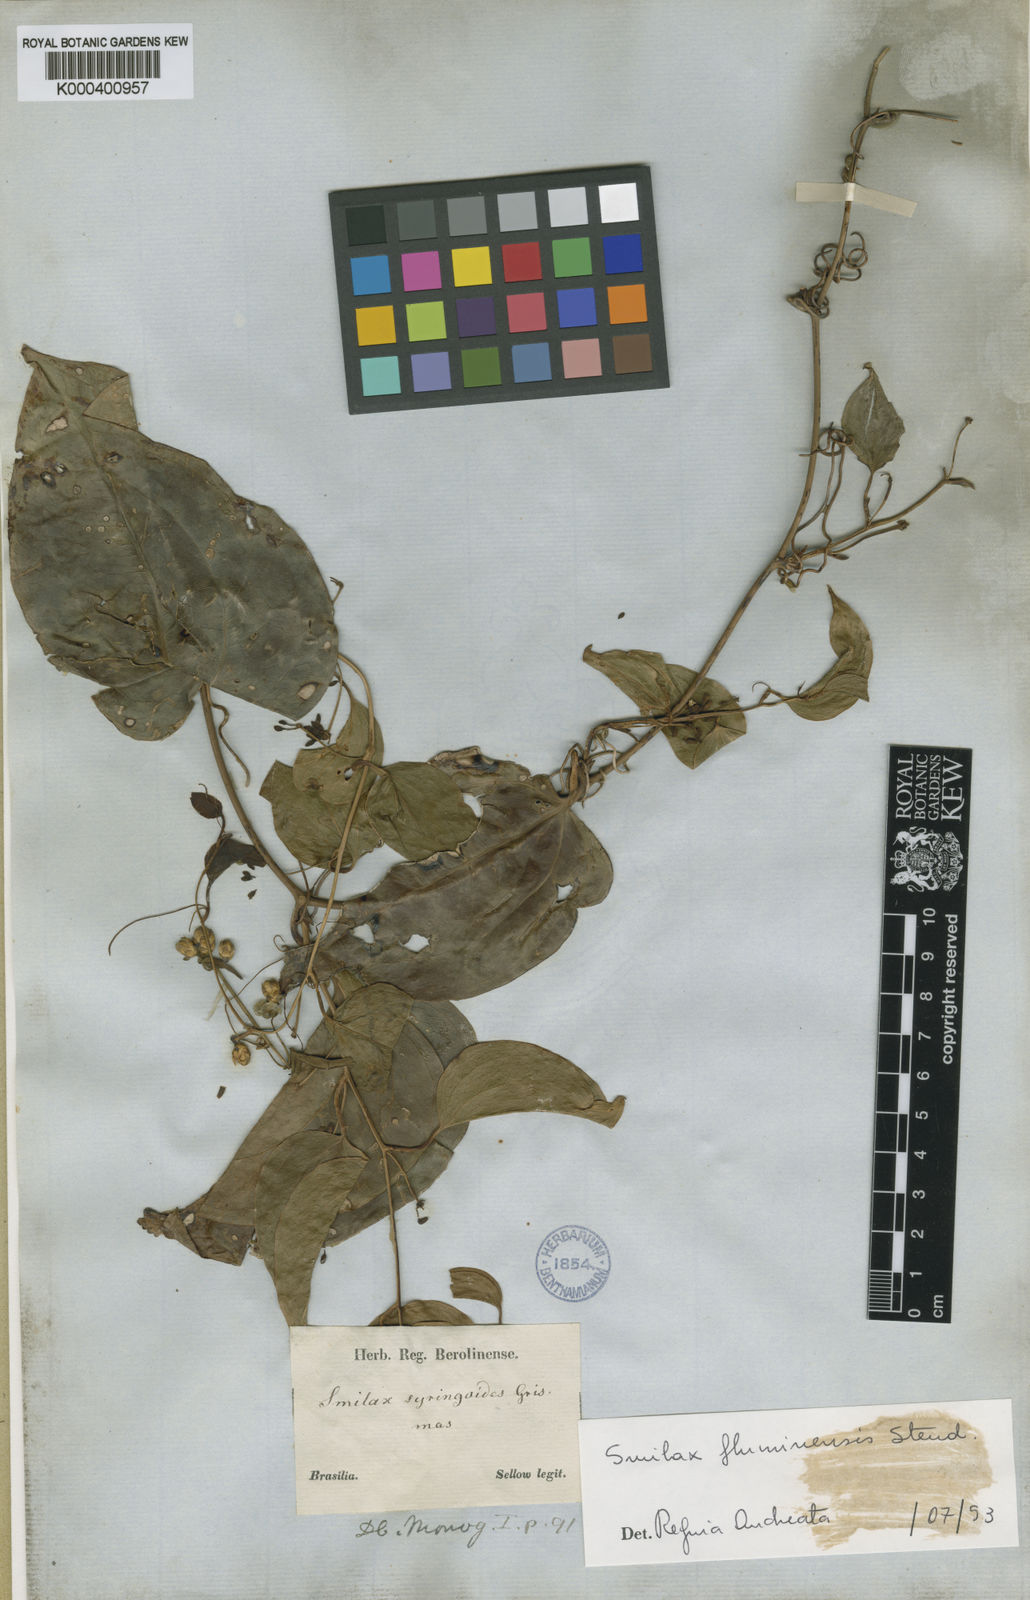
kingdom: Plantae
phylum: Tracheophyta
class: Liliopsida
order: Liliales
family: Smilacaceae
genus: Smilax
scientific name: Smilax fluminensis
